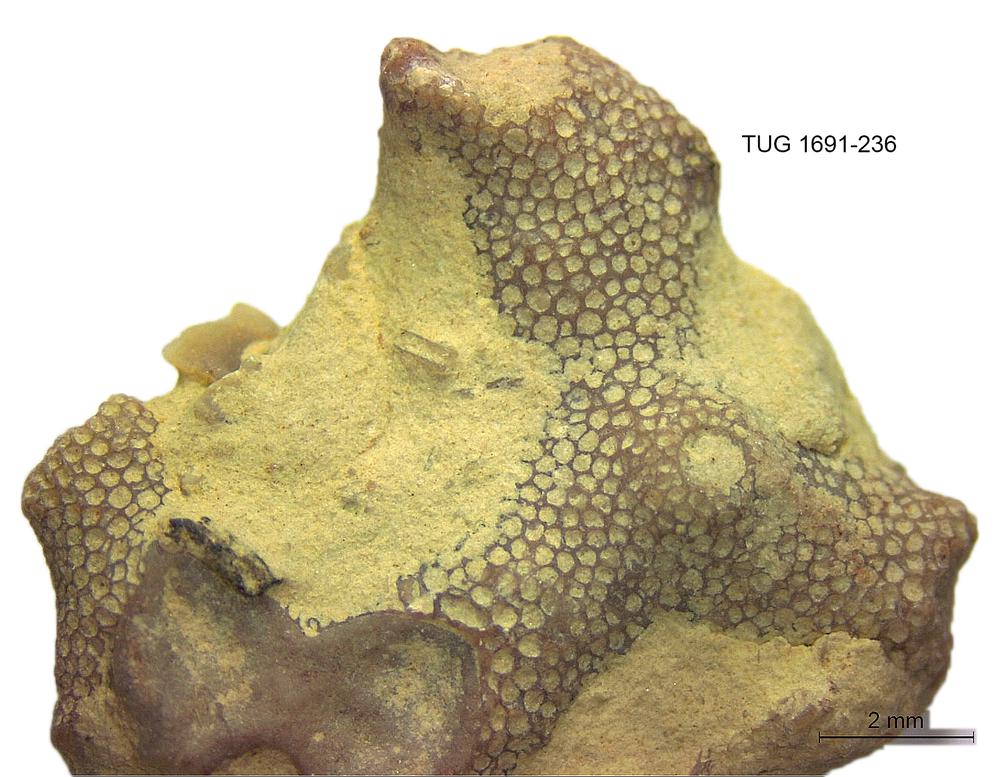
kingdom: Animalia
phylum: Bryozoa
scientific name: Bryozoa
